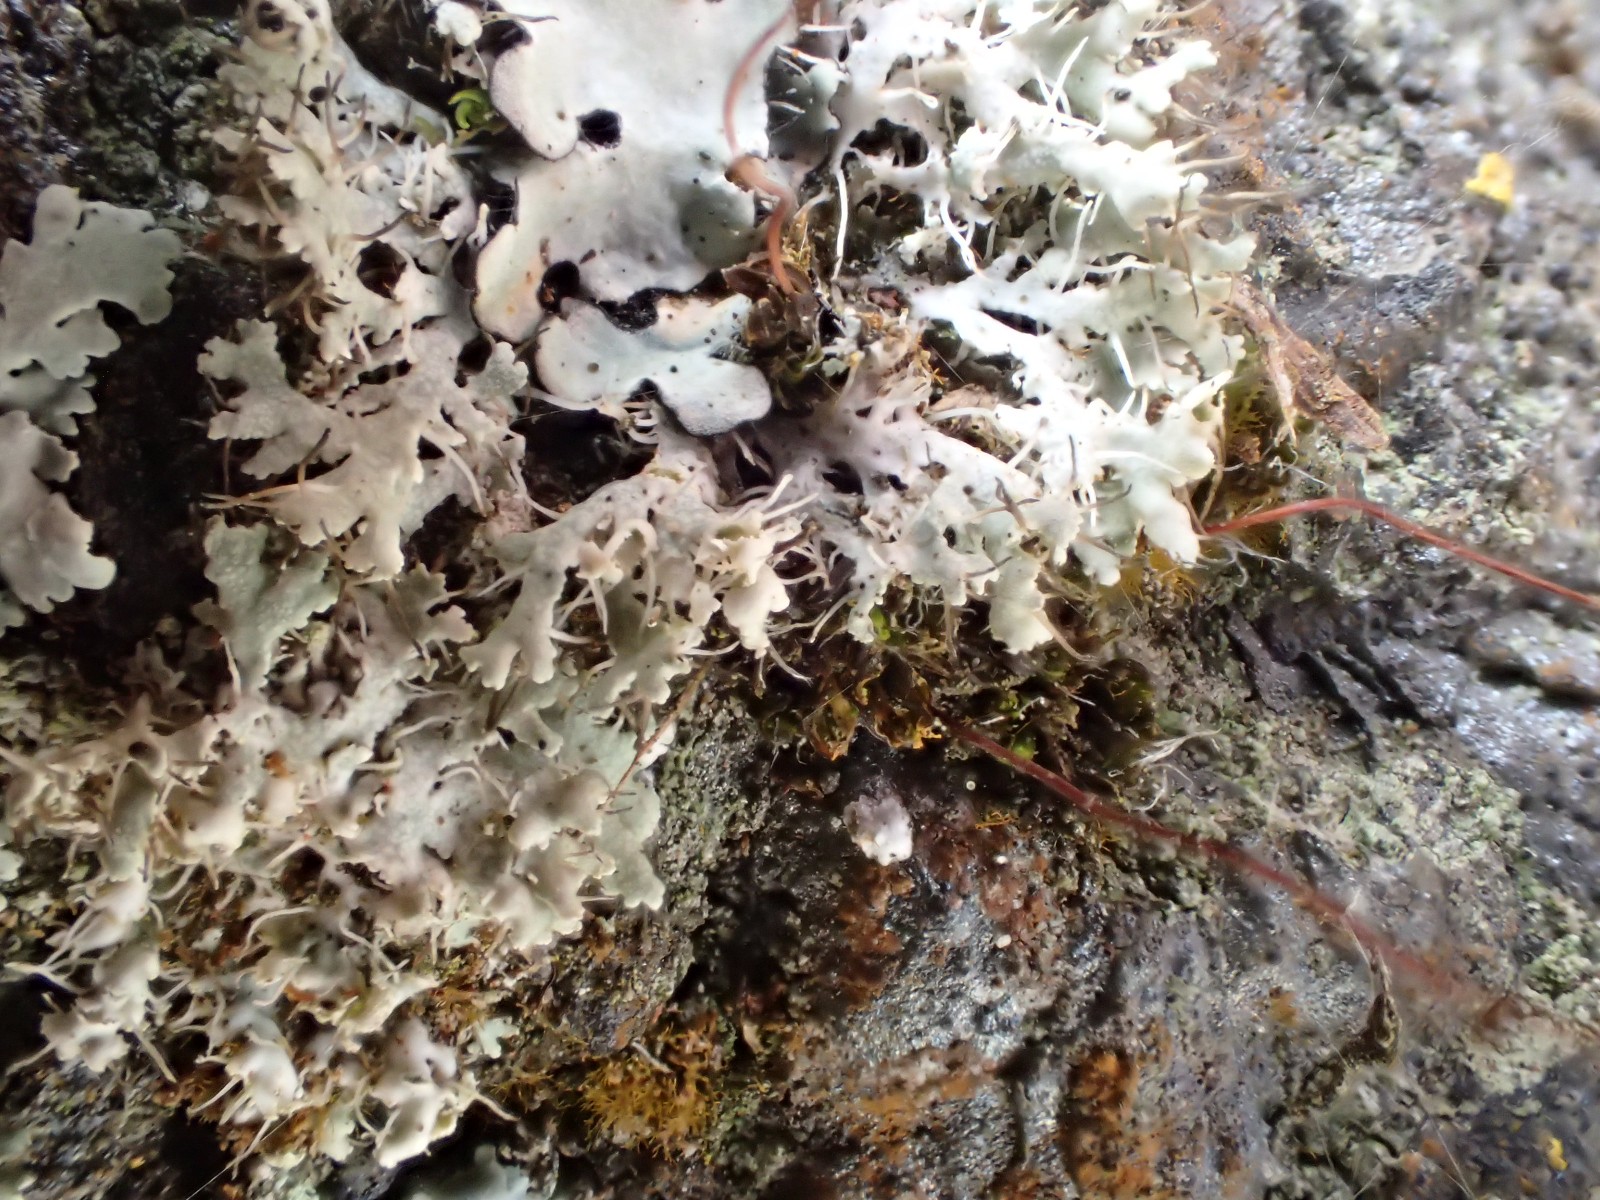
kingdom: Fungi
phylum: Ascomycota
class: Lecanoromycetes
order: Caliciales
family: Physciaceae
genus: Physcia
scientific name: Physcia adscendens
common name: hætte-rosetlav
